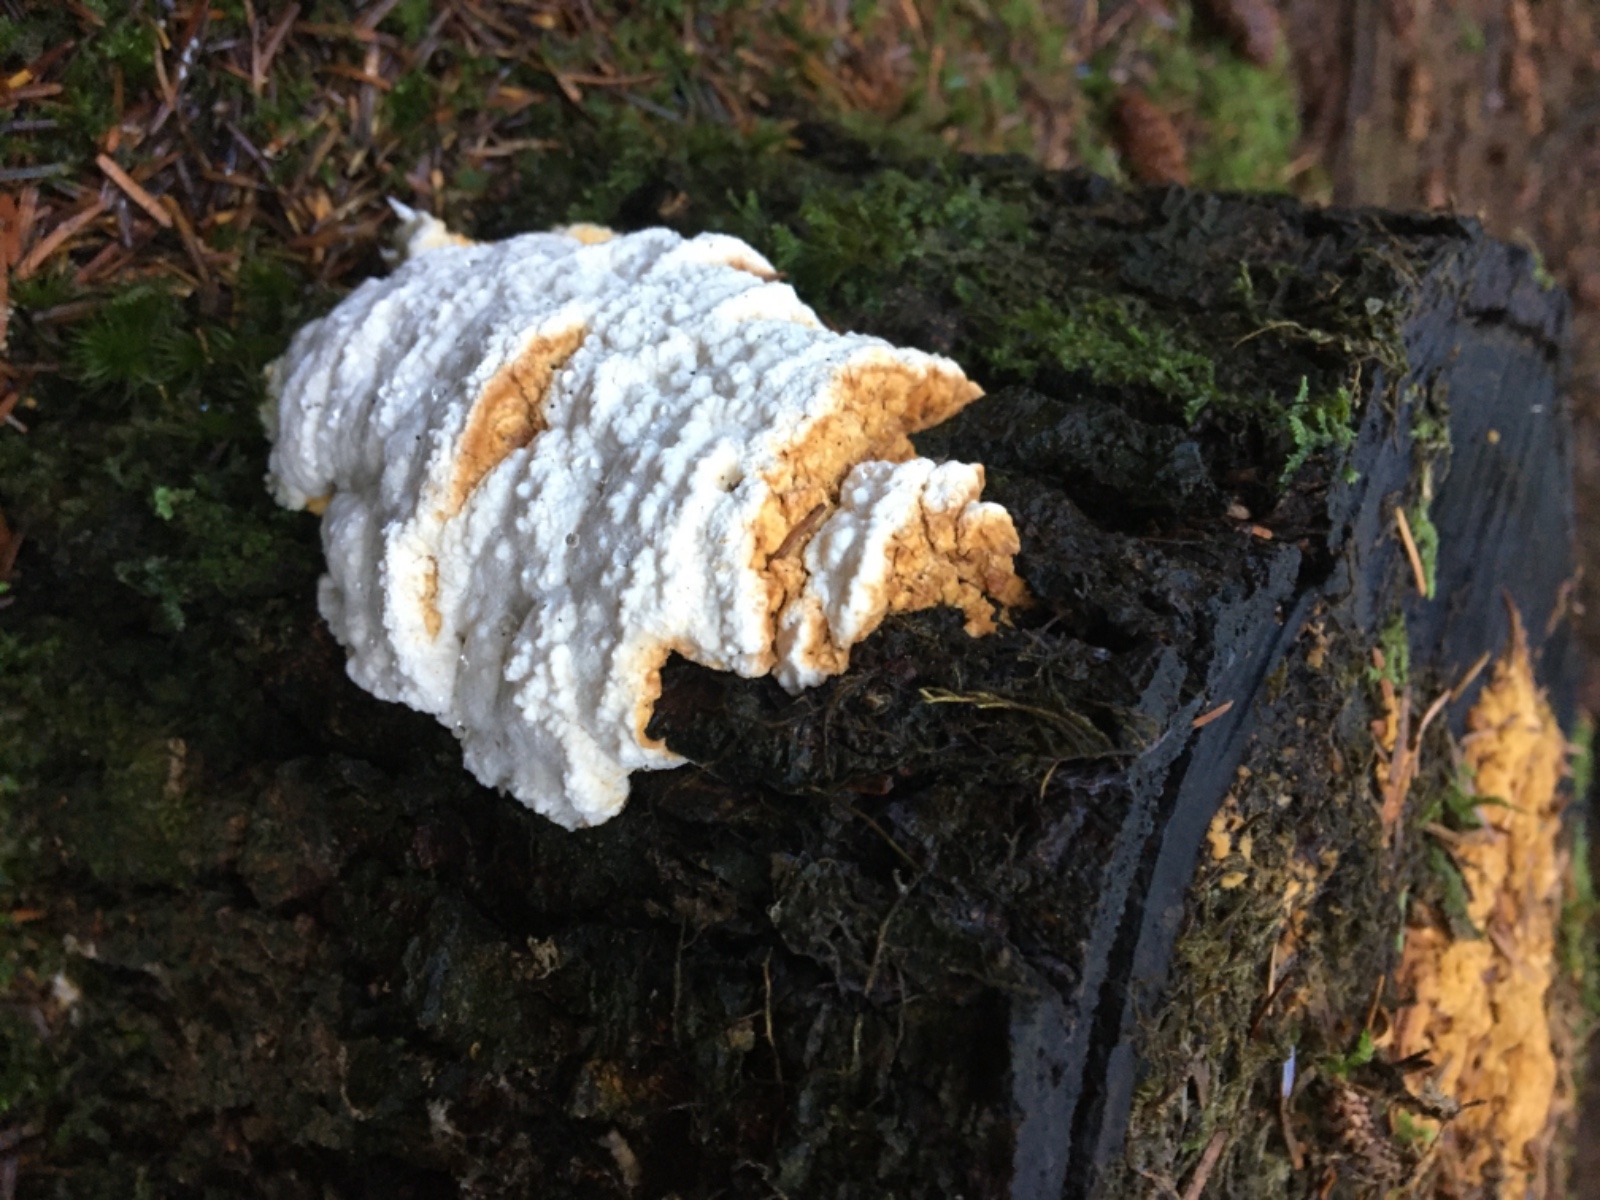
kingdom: Fungi
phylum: Basidiomycota
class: Agaricomycetes
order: Polyporales
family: Fomitopsidaceae
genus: Neoantrodia
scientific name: Neoantrodia serialis
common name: række-sejporesvamp
